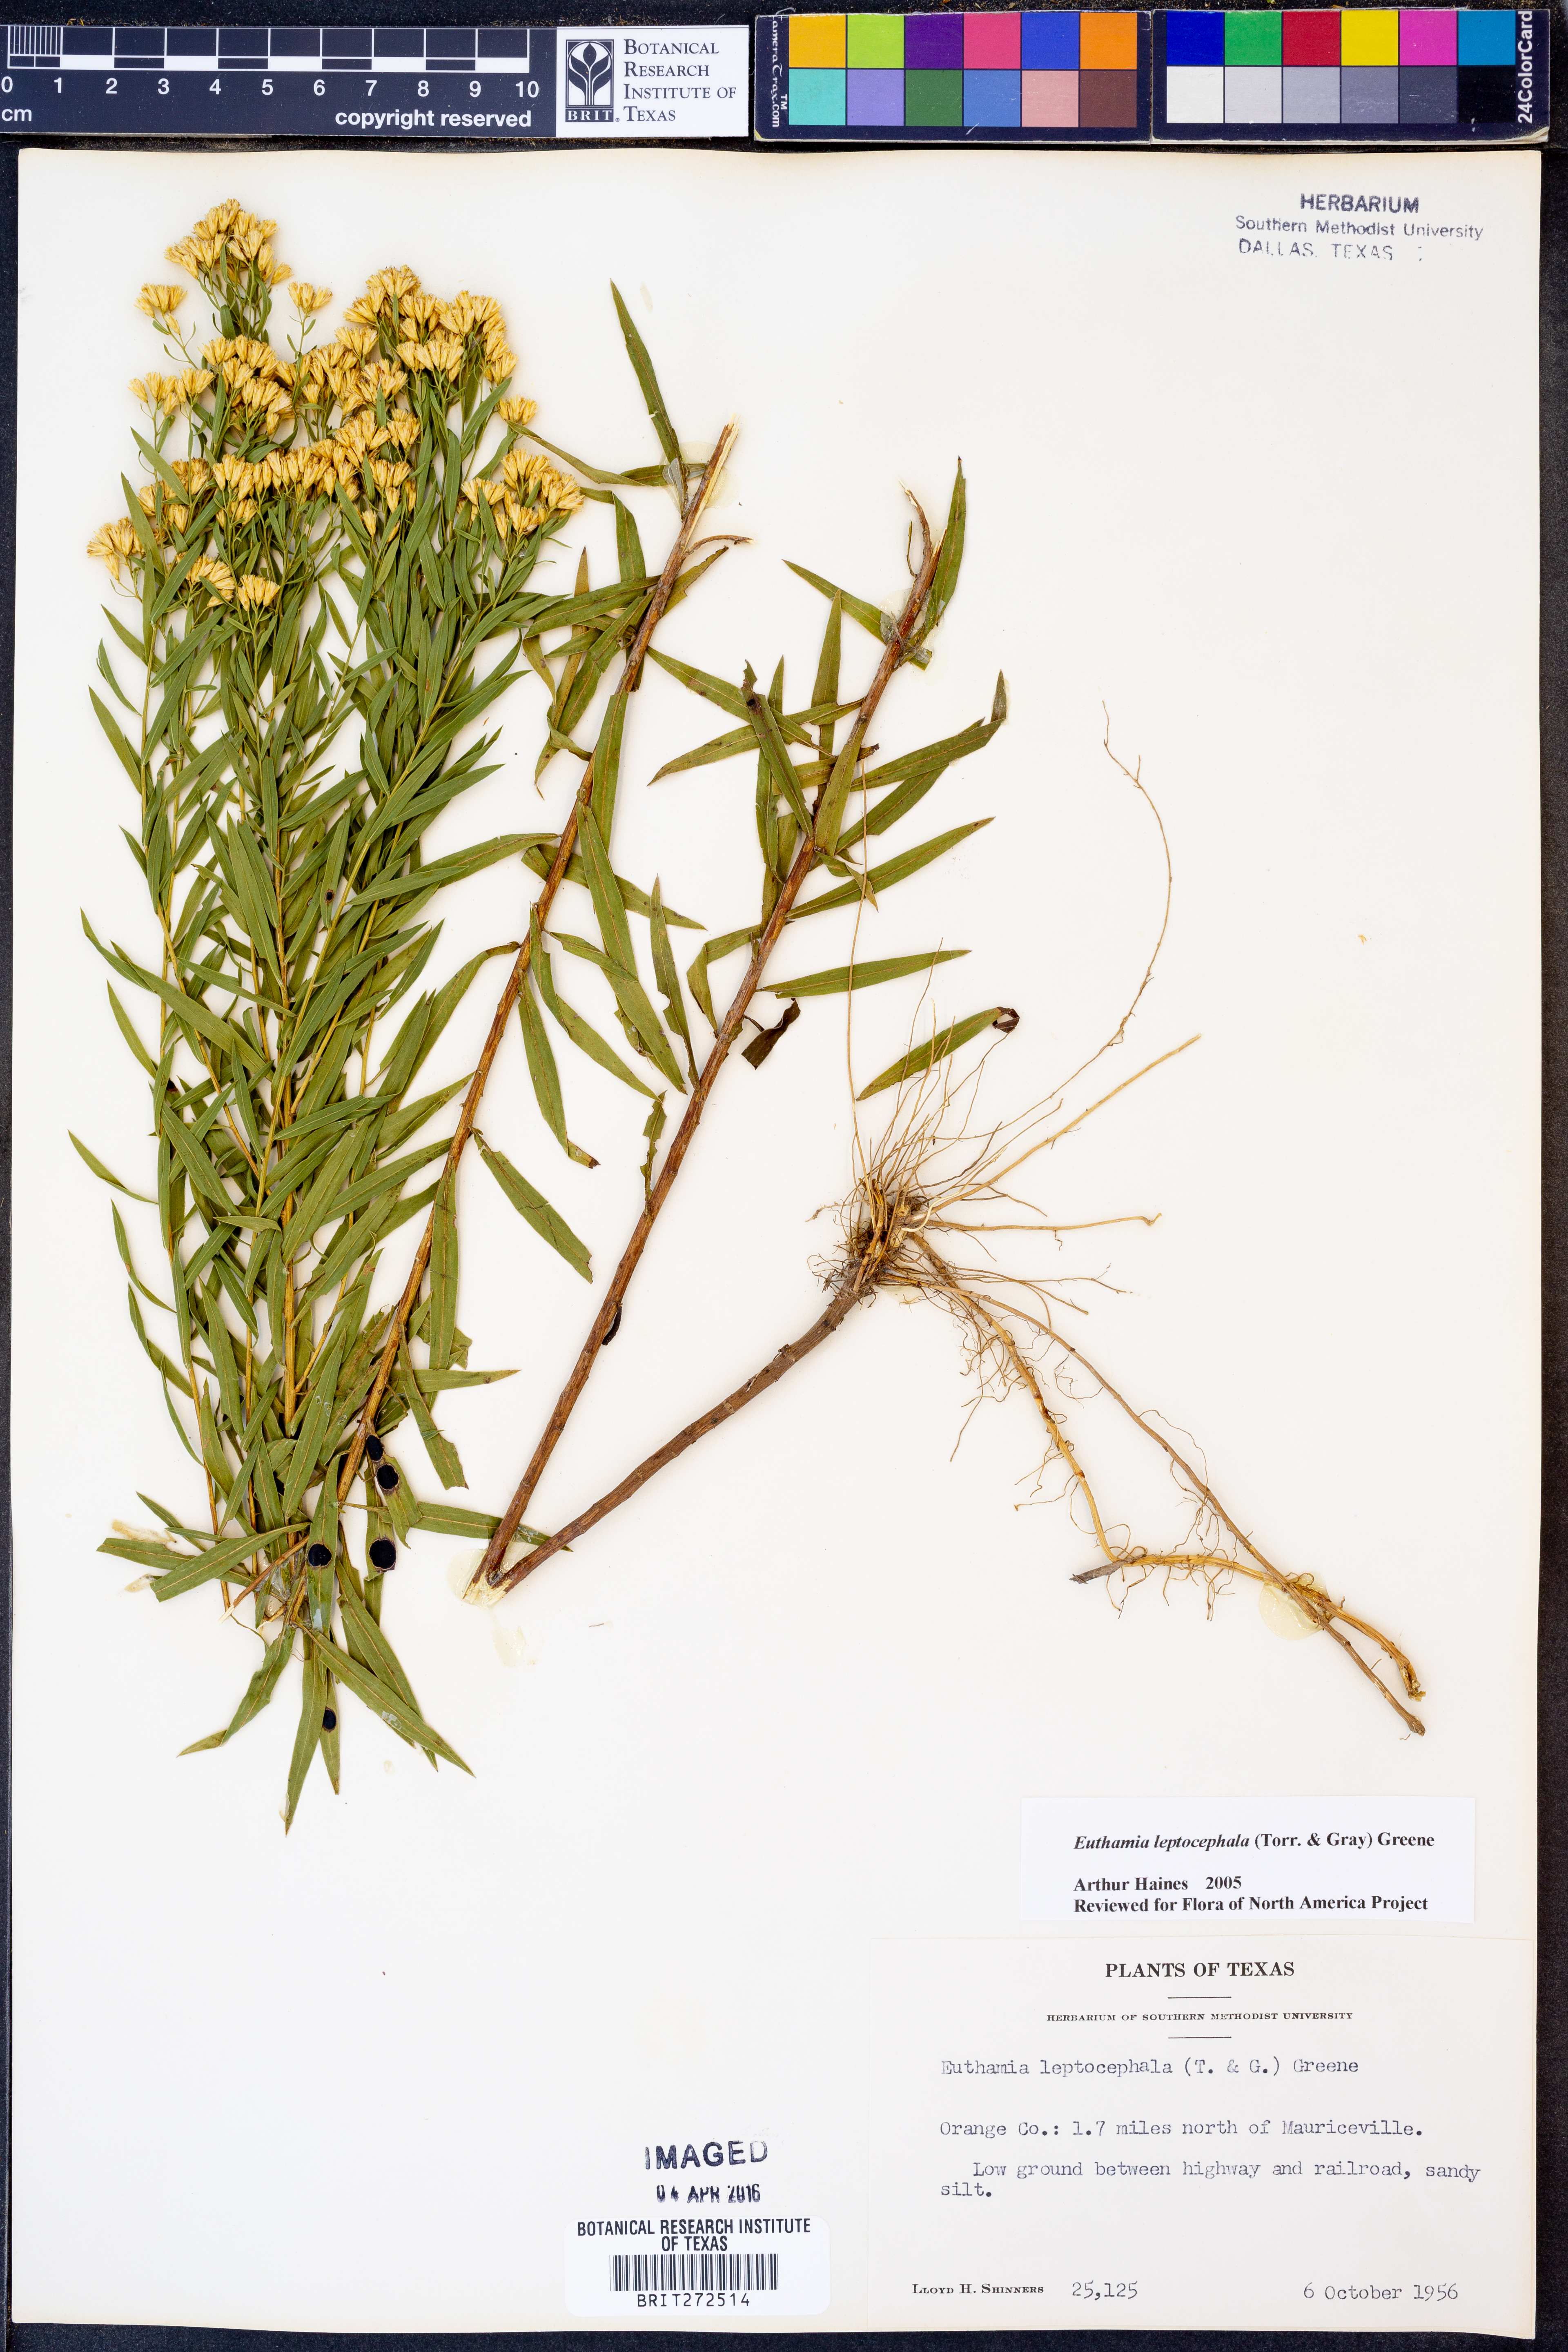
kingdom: Plantae
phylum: Tracheophyta
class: Magnoliopsida
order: Asterales
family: Asteraceae
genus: Euthamia
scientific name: Euthamia leptocephala
